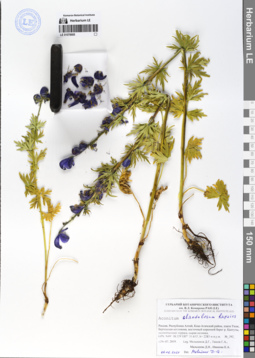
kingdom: Plantae
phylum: Tracheophyta
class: Magnoliopsida
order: Ranunculales
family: Ranunculaceae
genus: Aconitum
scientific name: Aconitum glandulosum
